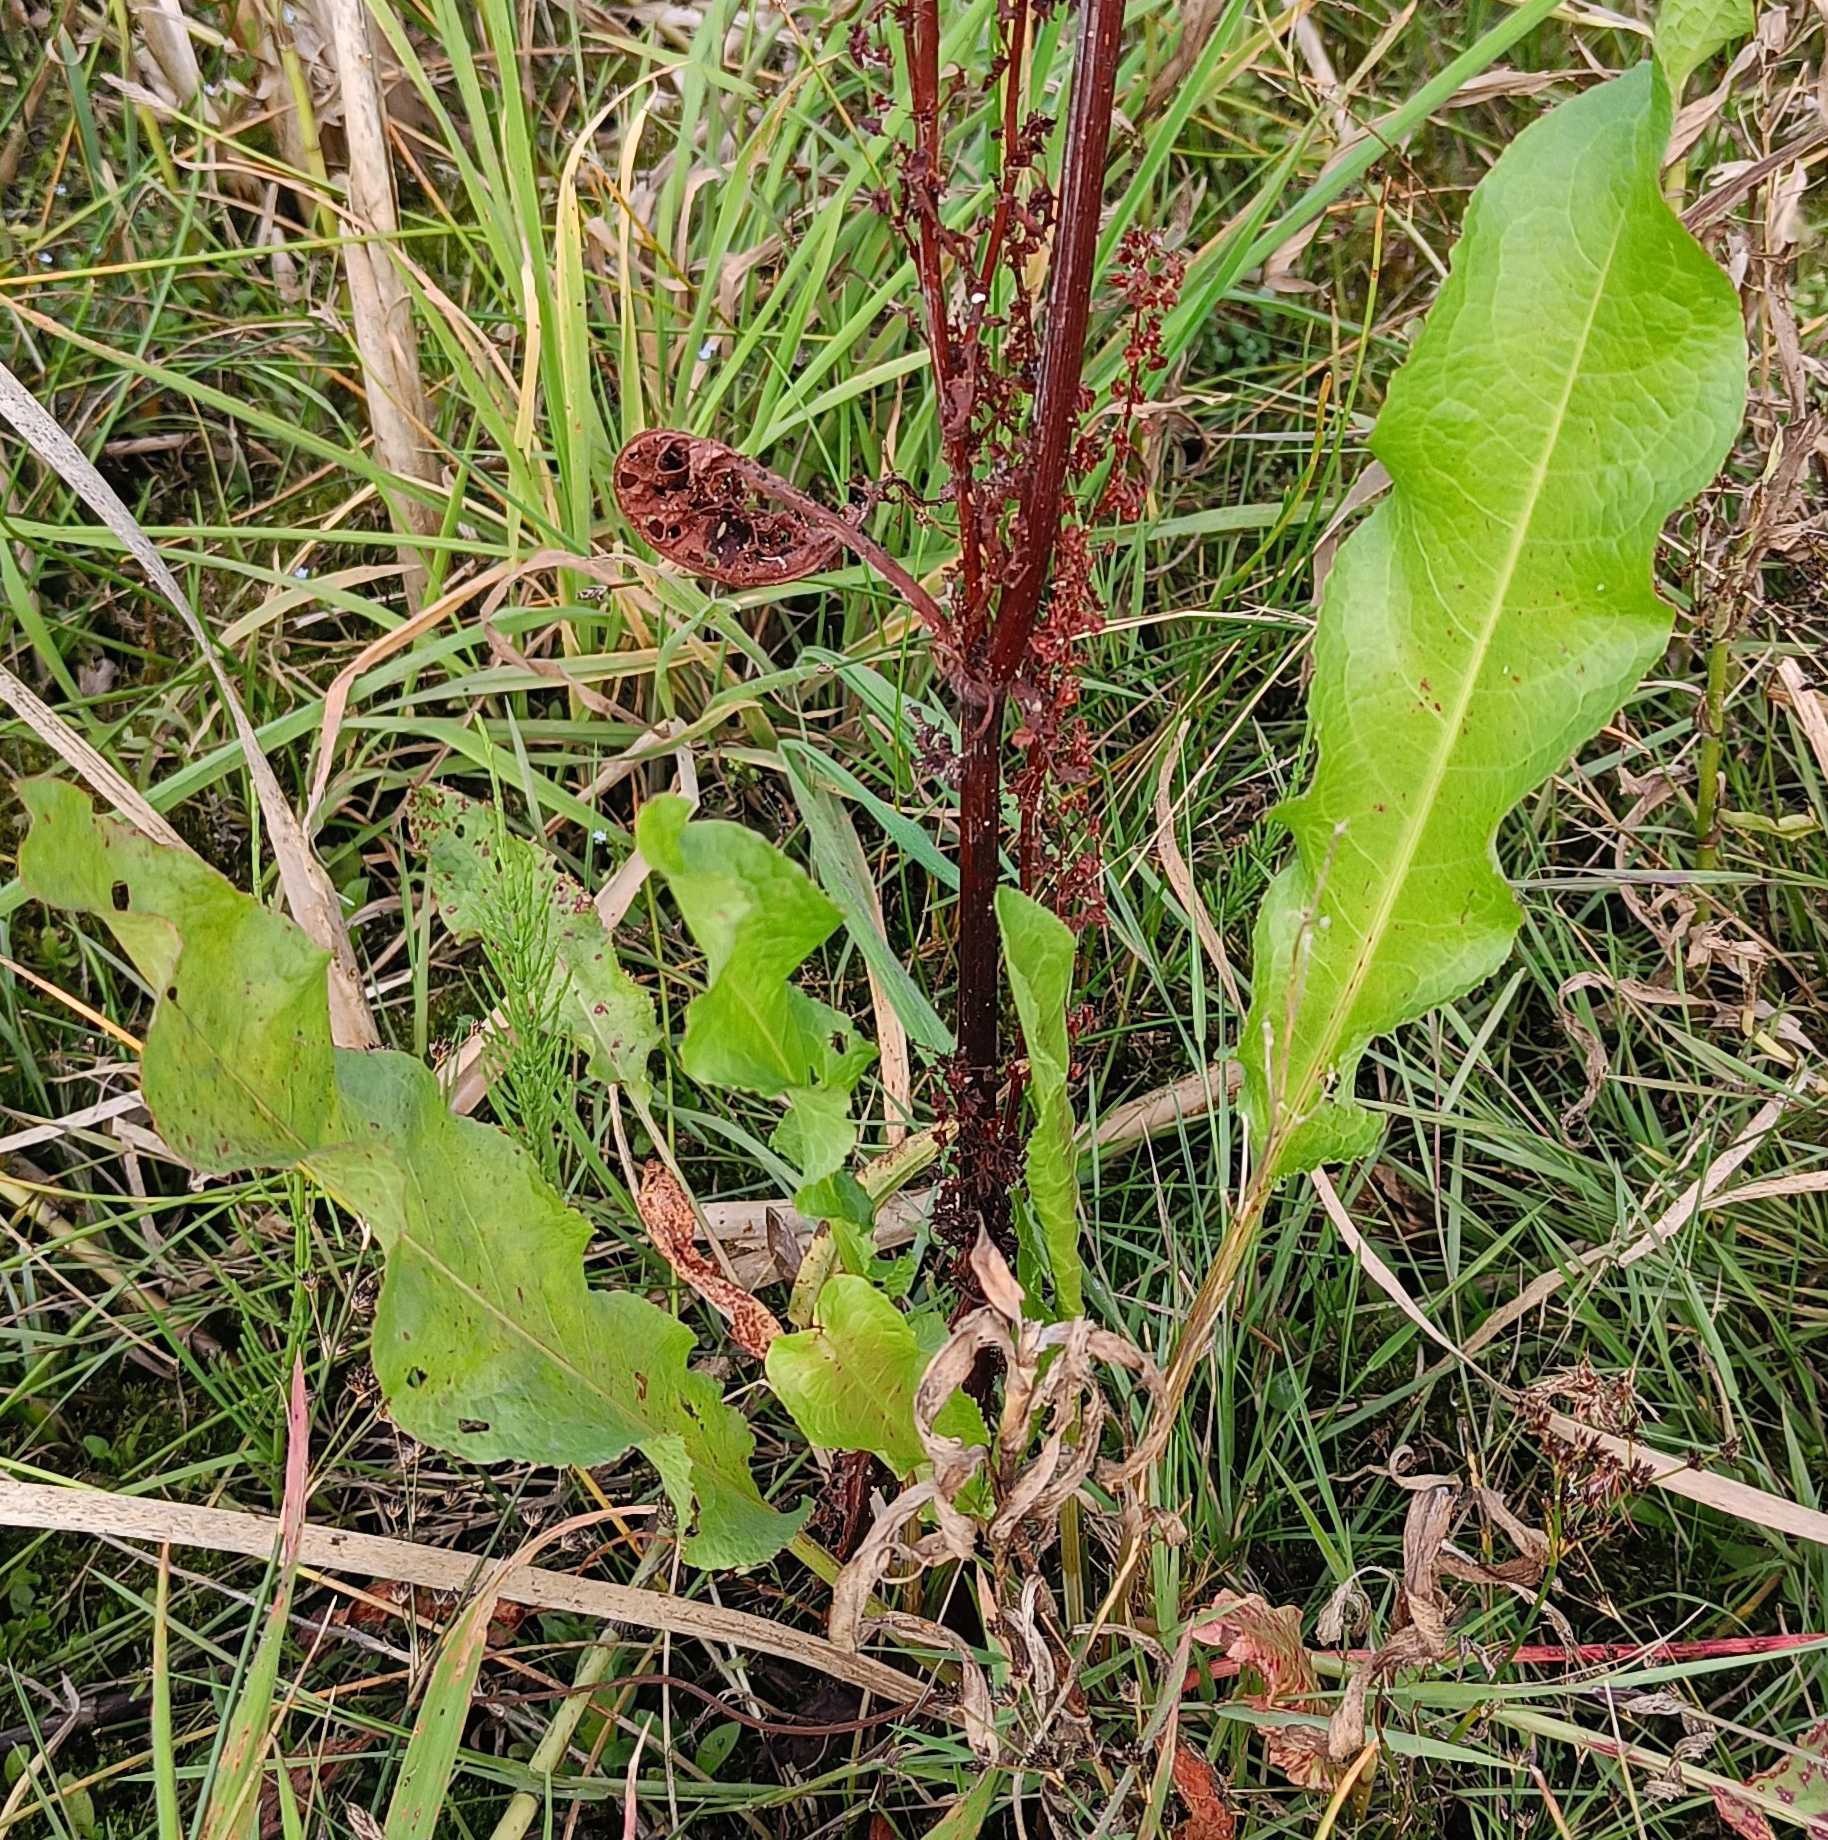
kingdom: Plantae
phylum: Tracheophyta
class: Magnoliopsida
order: Caryophyllales
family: Polygonaceae
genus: Rumex
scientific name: Rumex crispus
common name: Kruset skræppe
